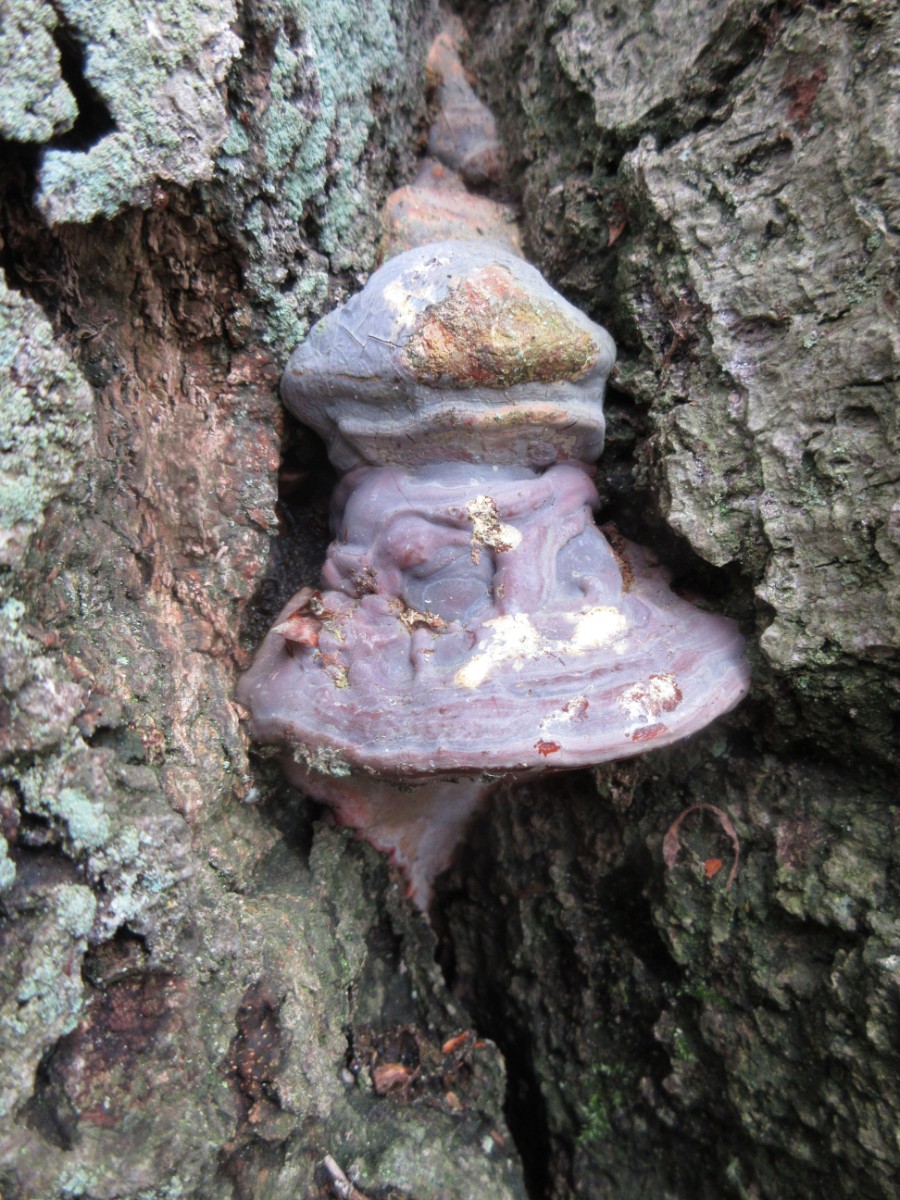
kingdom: Fungi
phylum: Basidiomycota
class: Agaricomycetes
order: Polyporales
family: Polyporaceae
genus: Ganoderma
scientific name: Ganoderma pfeifferi
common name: kobberrød lakporesvamp
